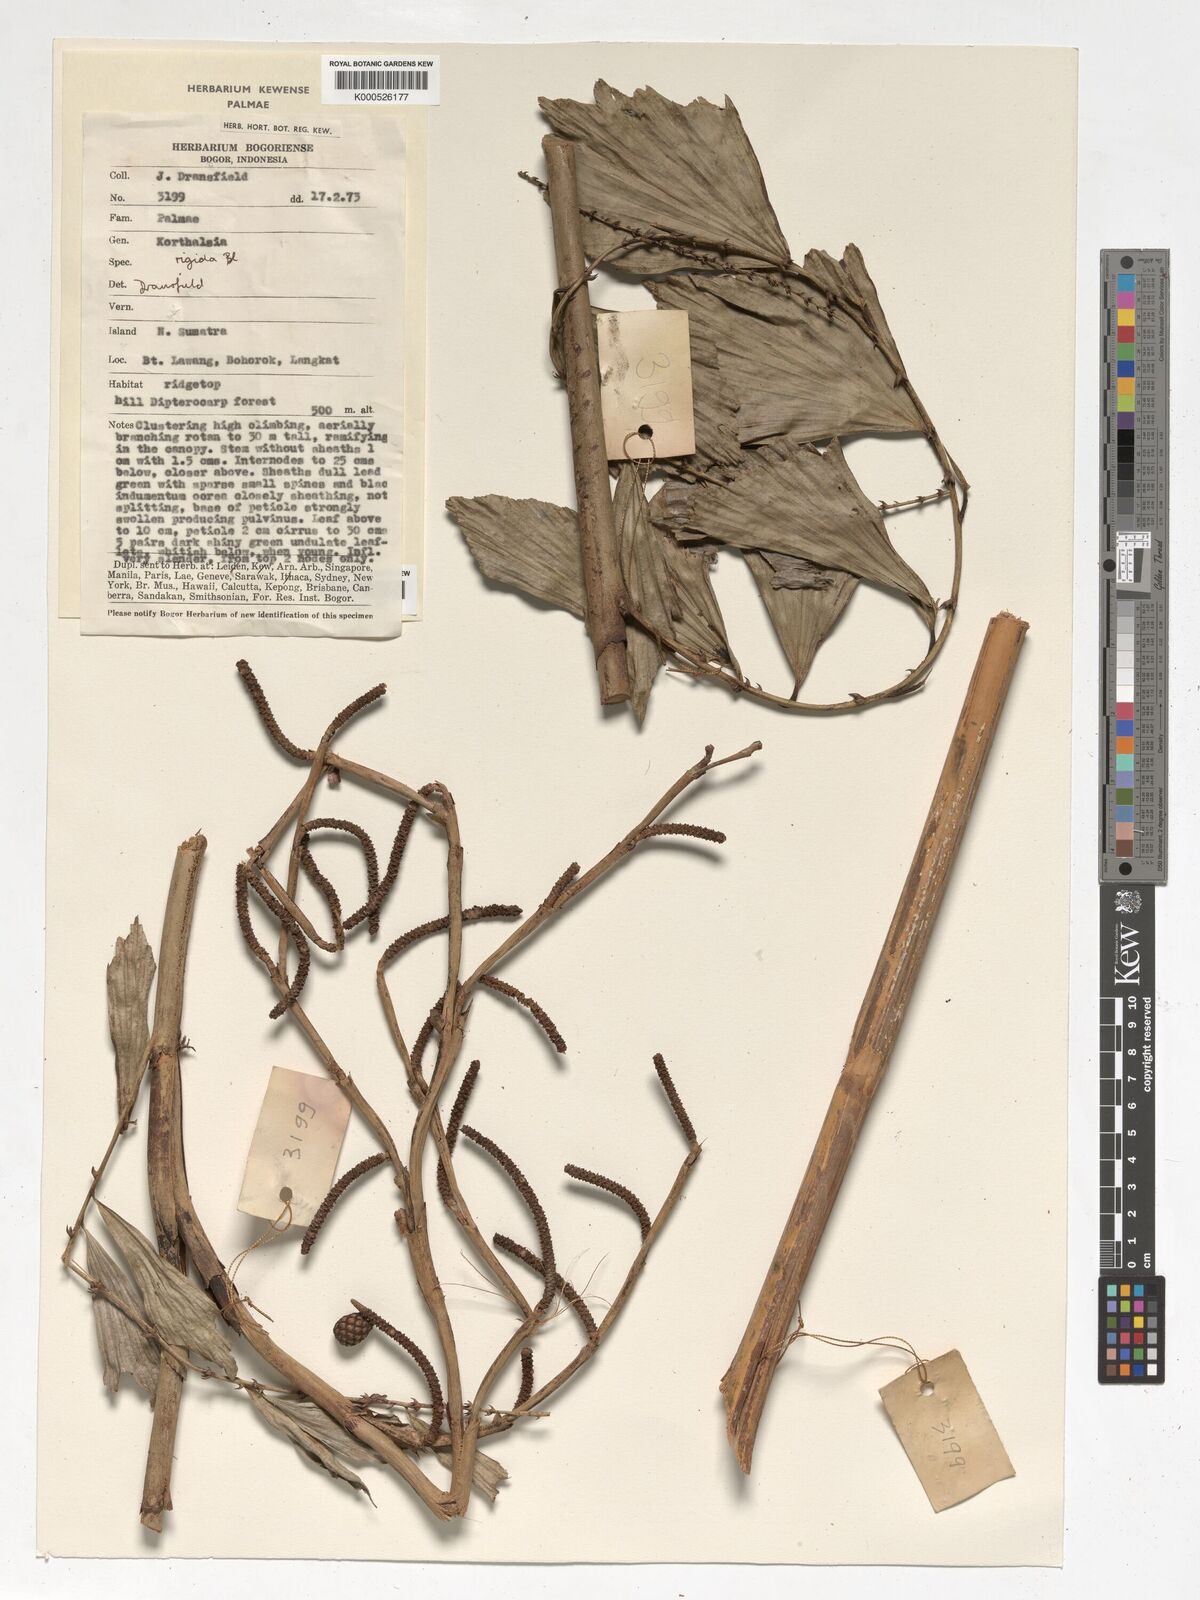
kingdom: Plantae
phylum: Tracheophyta
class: Liliopsida
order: Arecales
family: Arecaceae
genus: Korthalsia
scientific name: Korthalsia rigida
